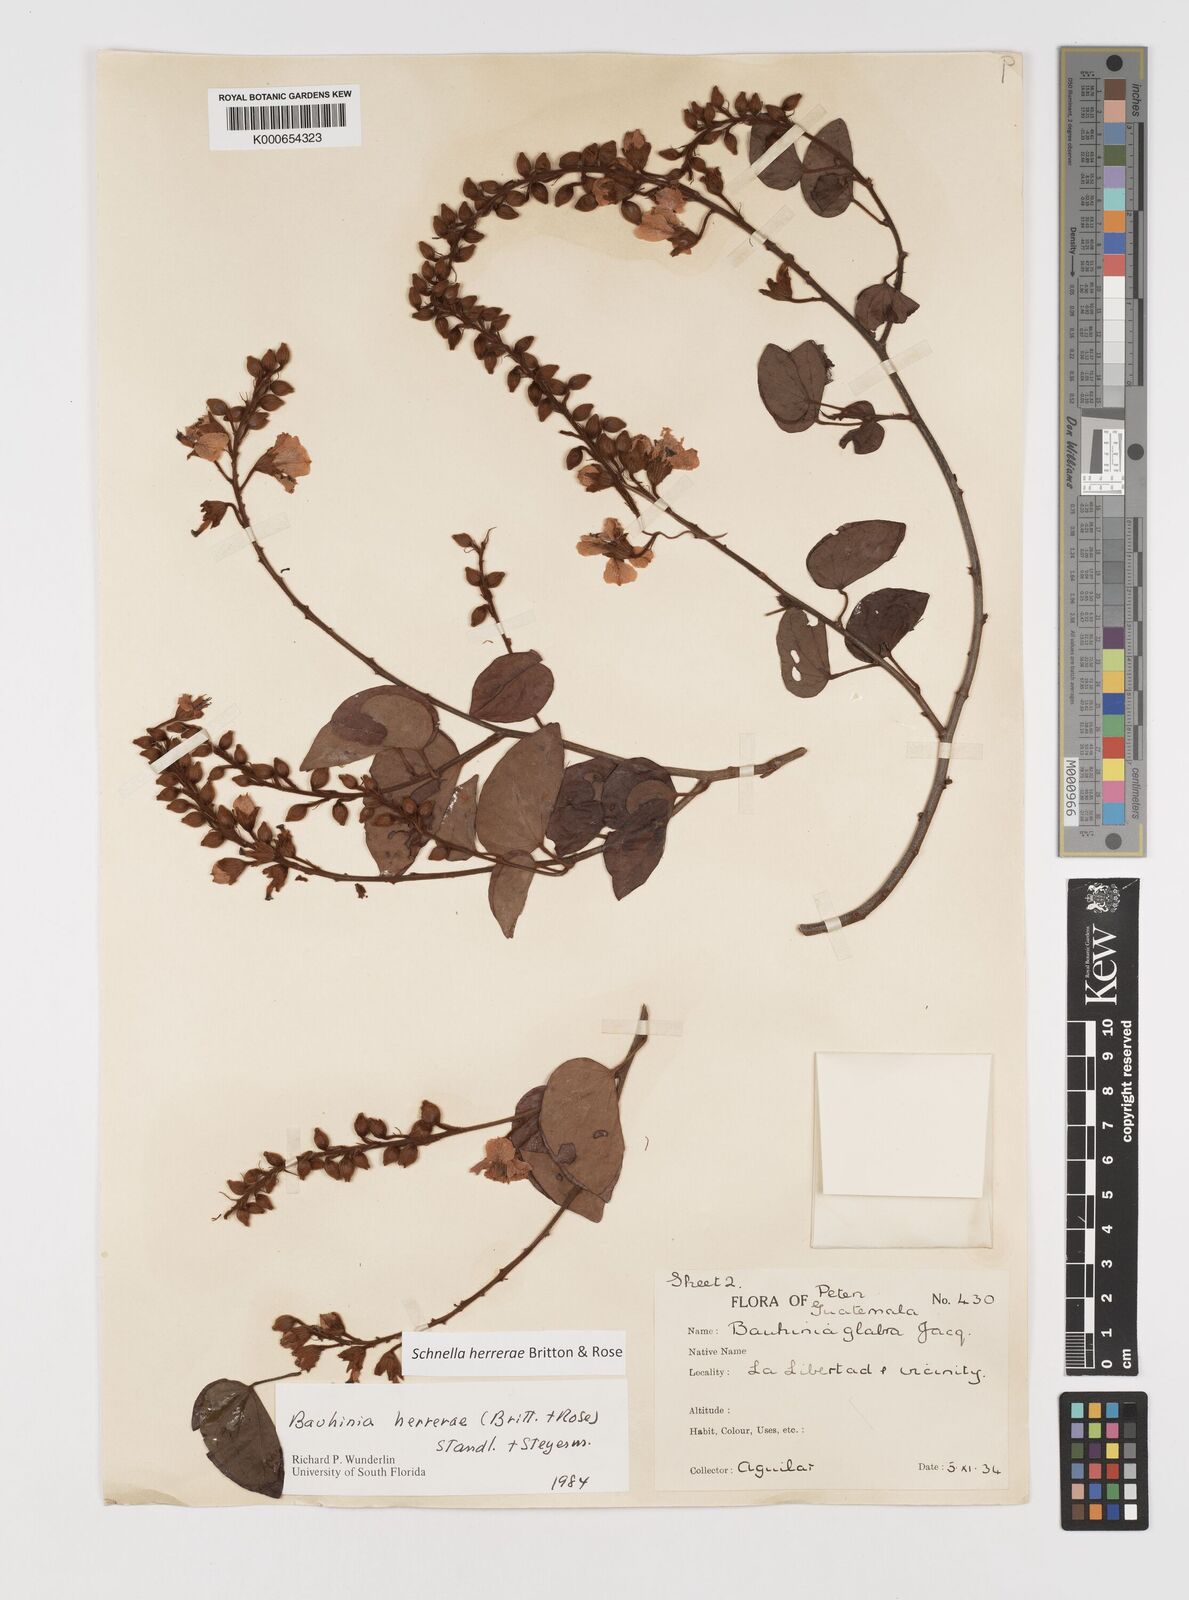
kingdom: Plantae
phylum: Tracheophyta
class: Magnoliopsida
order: Fabales
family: Fabaceae
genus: Schnella
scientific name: Schnella herrerae
